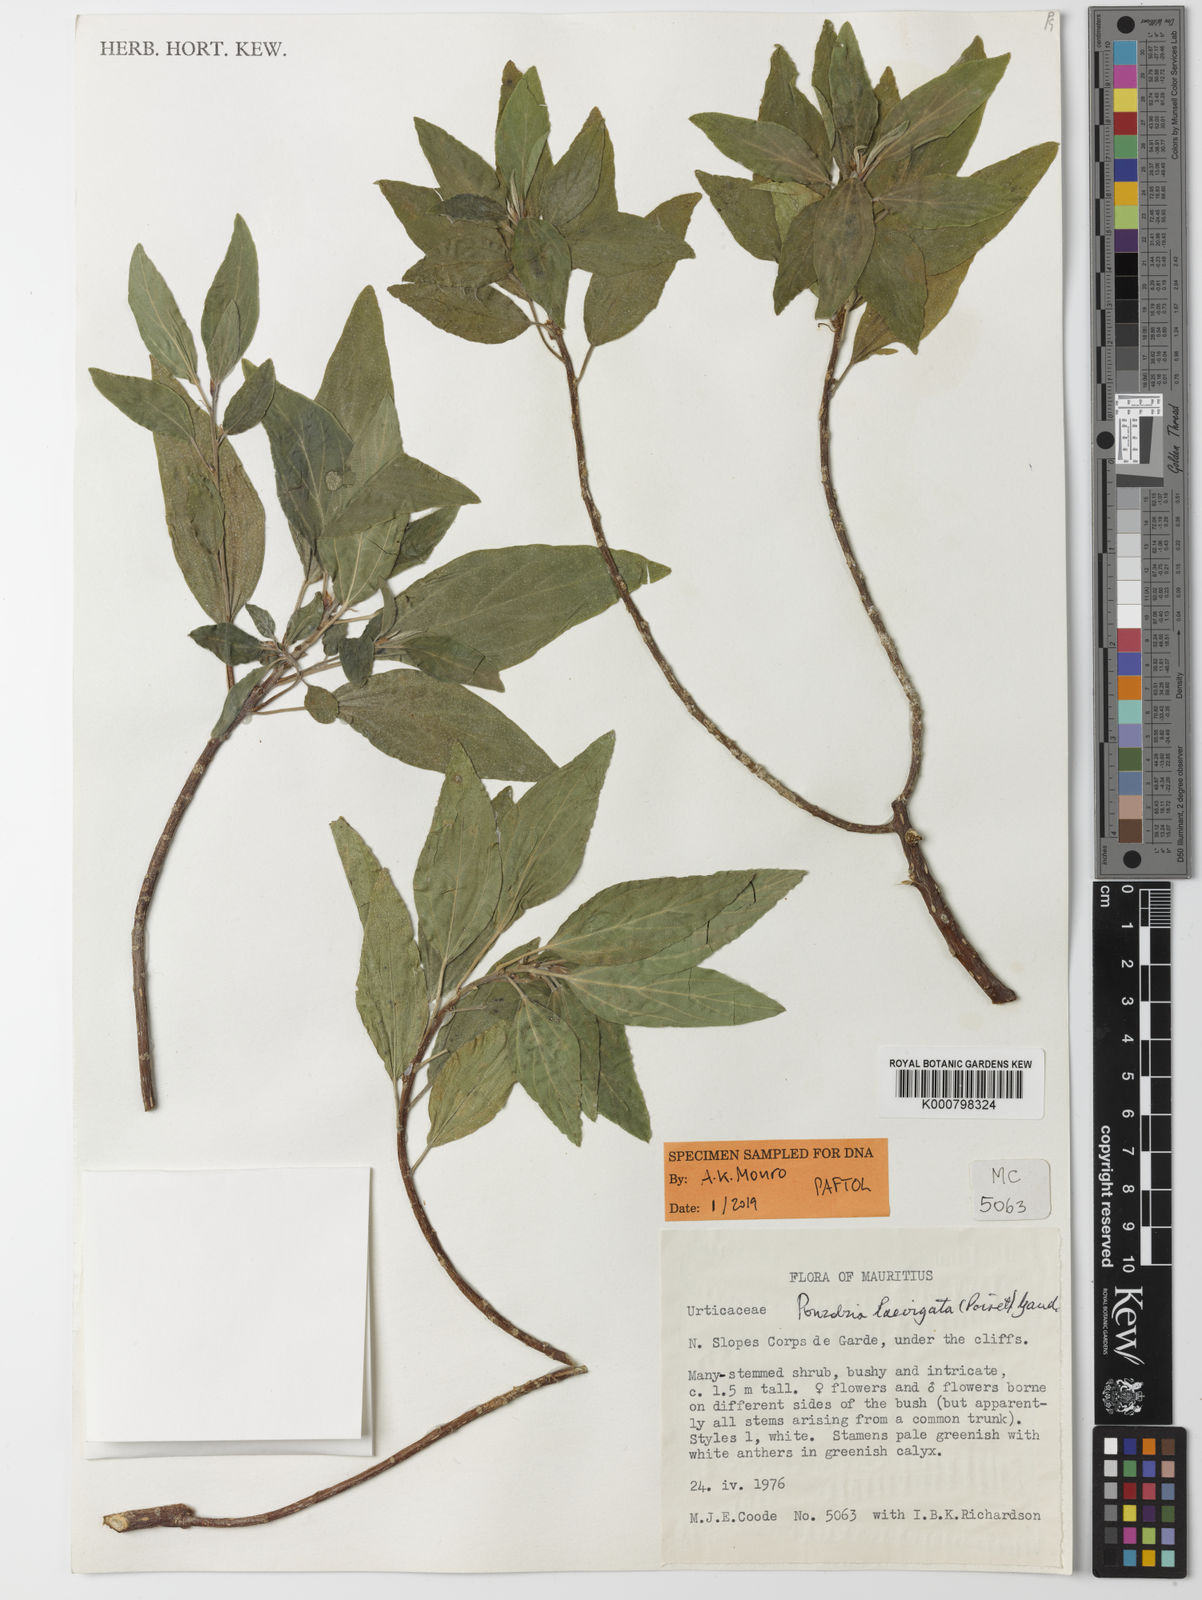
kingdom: Plantae
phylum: Tracheophyta
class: Magnoliopsida
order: Rosales
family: Urticaceae
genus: Pouzolzia
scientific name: Pouzolzia laevigata
